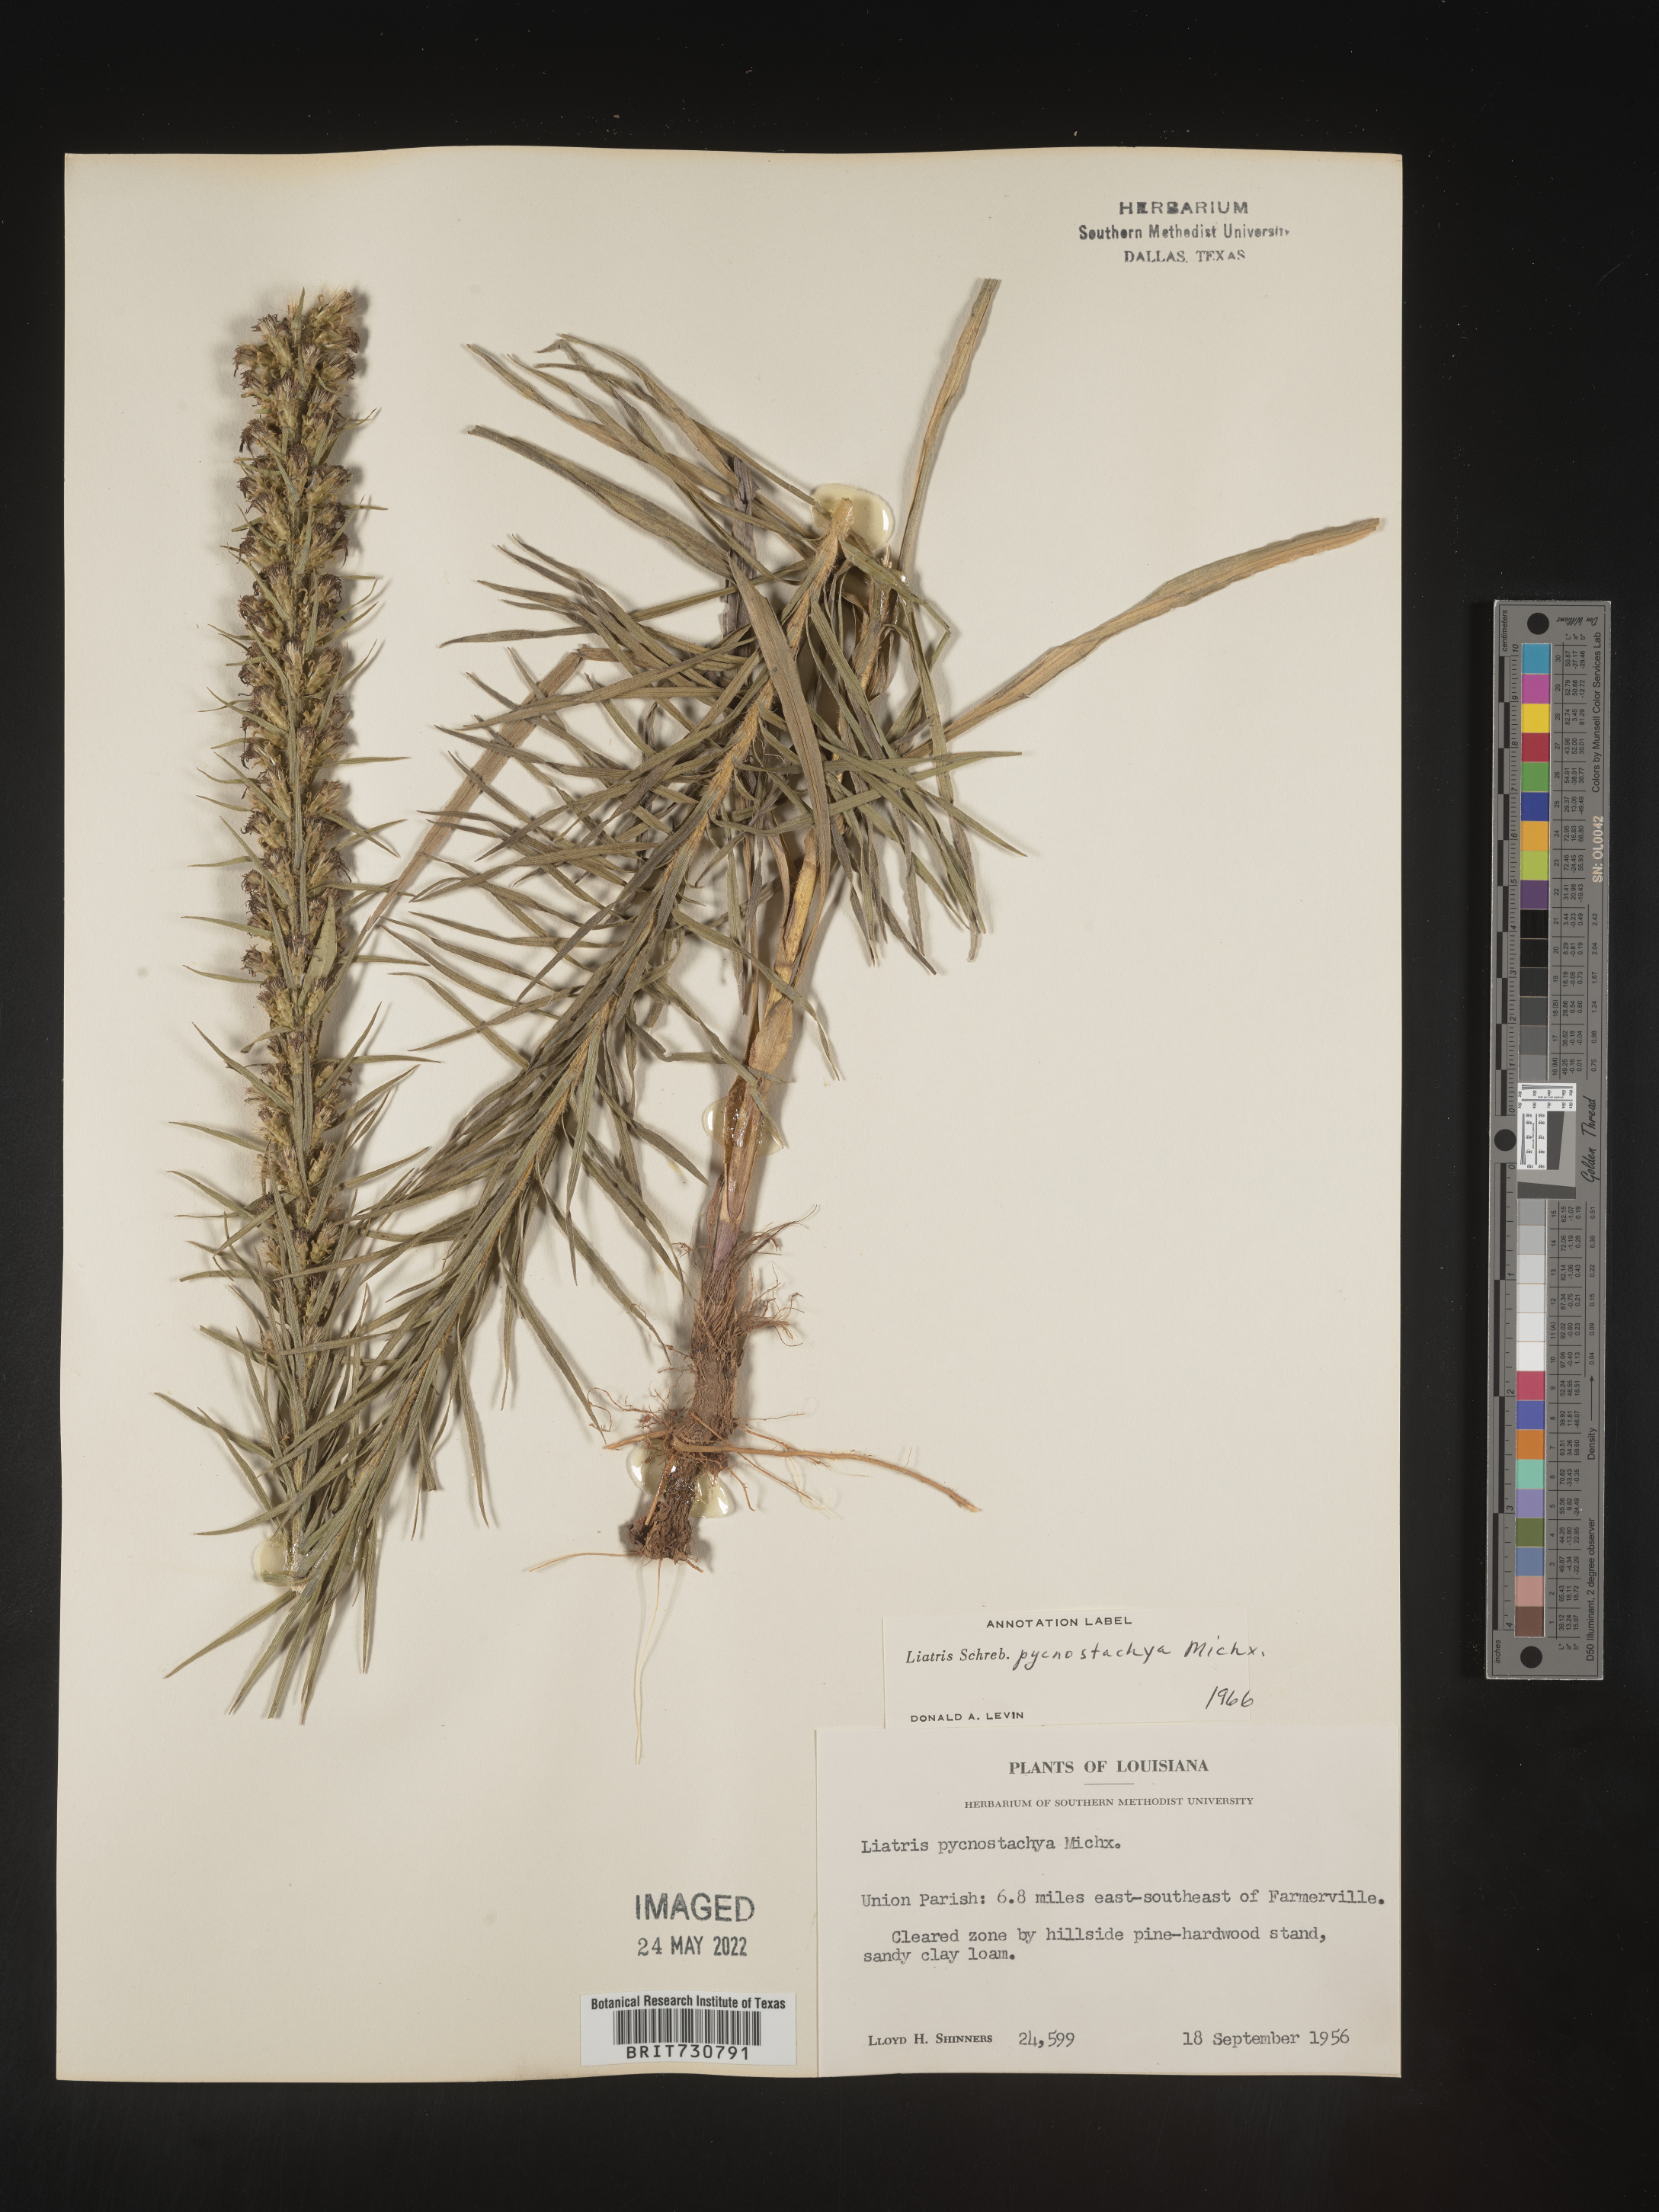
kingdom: Plantae
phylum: Tracheophyta
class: Magnoliopsida
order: Asterales
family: Asteraceae
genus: Liatris
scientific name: Liatris pycnostachya
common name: Cattail gayfeather
